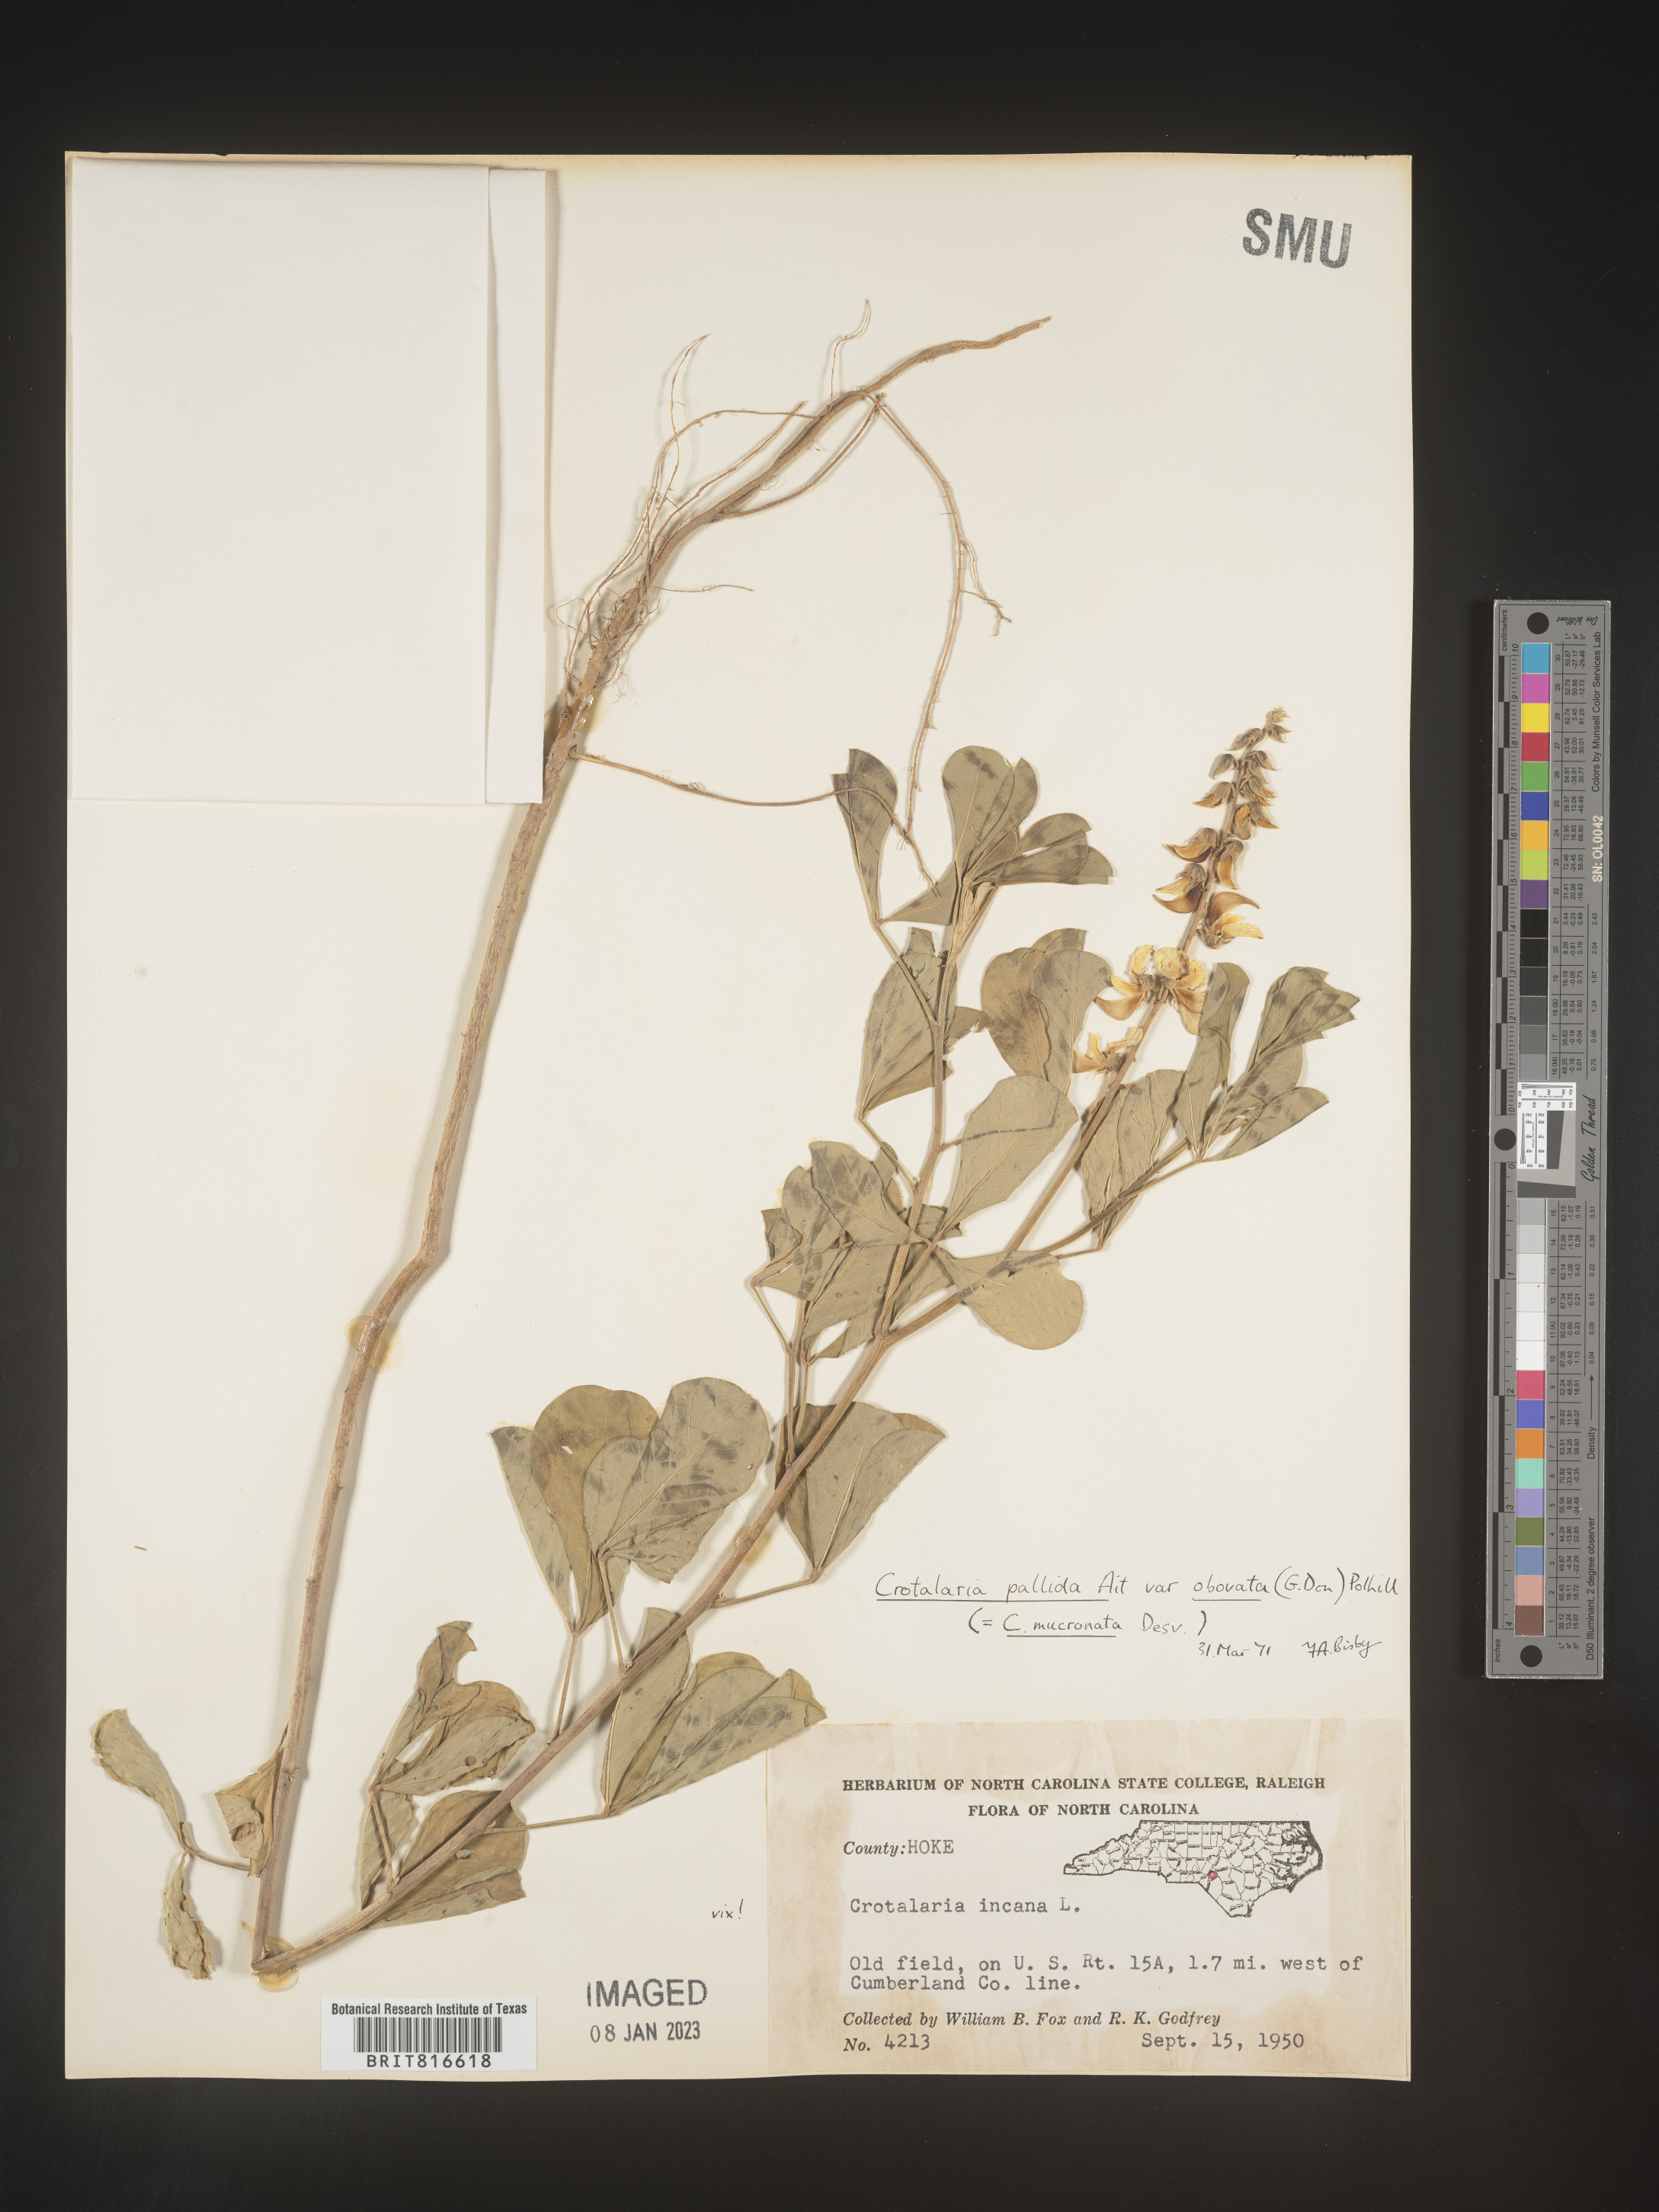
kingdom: Plantae
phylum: Tracheophyta
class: Magnoliopsida
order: Fabales
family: Fabaceae
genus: Crotalaria
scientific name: Crotalaria linifolia
